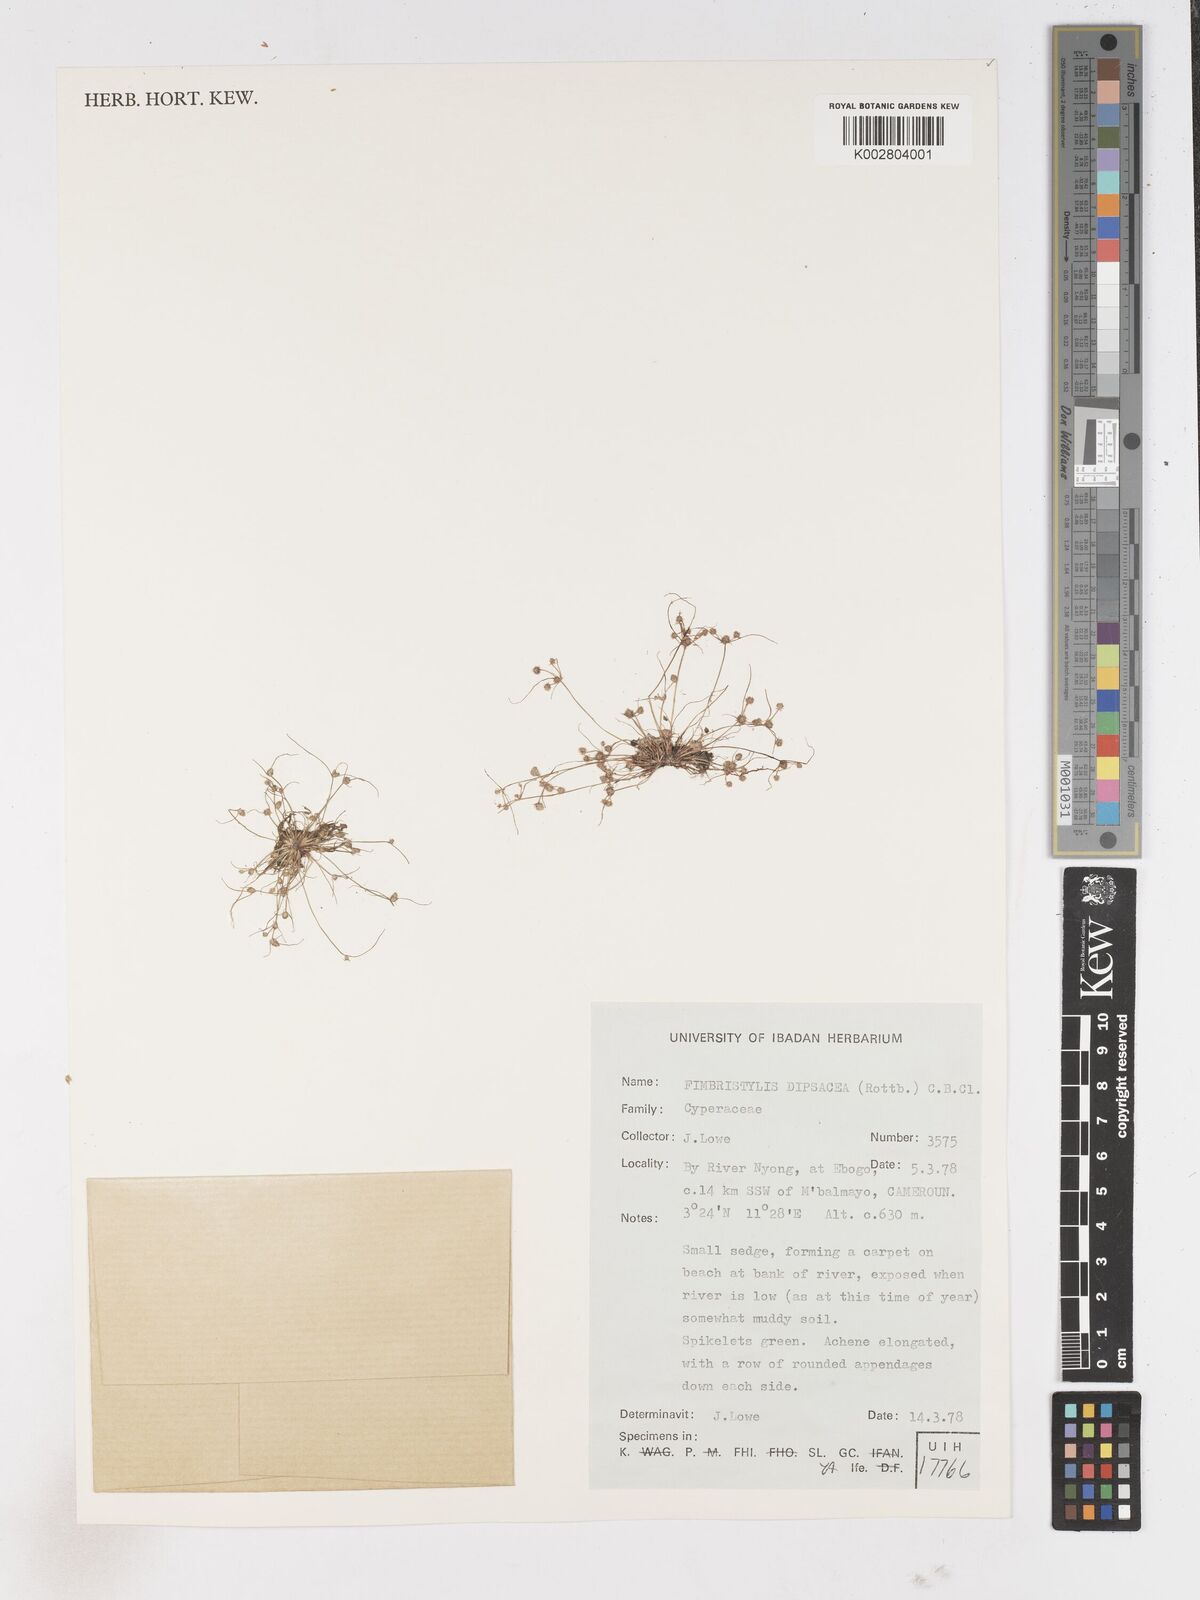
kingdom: Plantae
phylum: Tracheophyta
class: Liliopsida
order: Poales
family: Cyperaceae
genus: Fimbristylis
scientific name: Fimbristylis dipsacea
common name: Harper's fimbristylis
